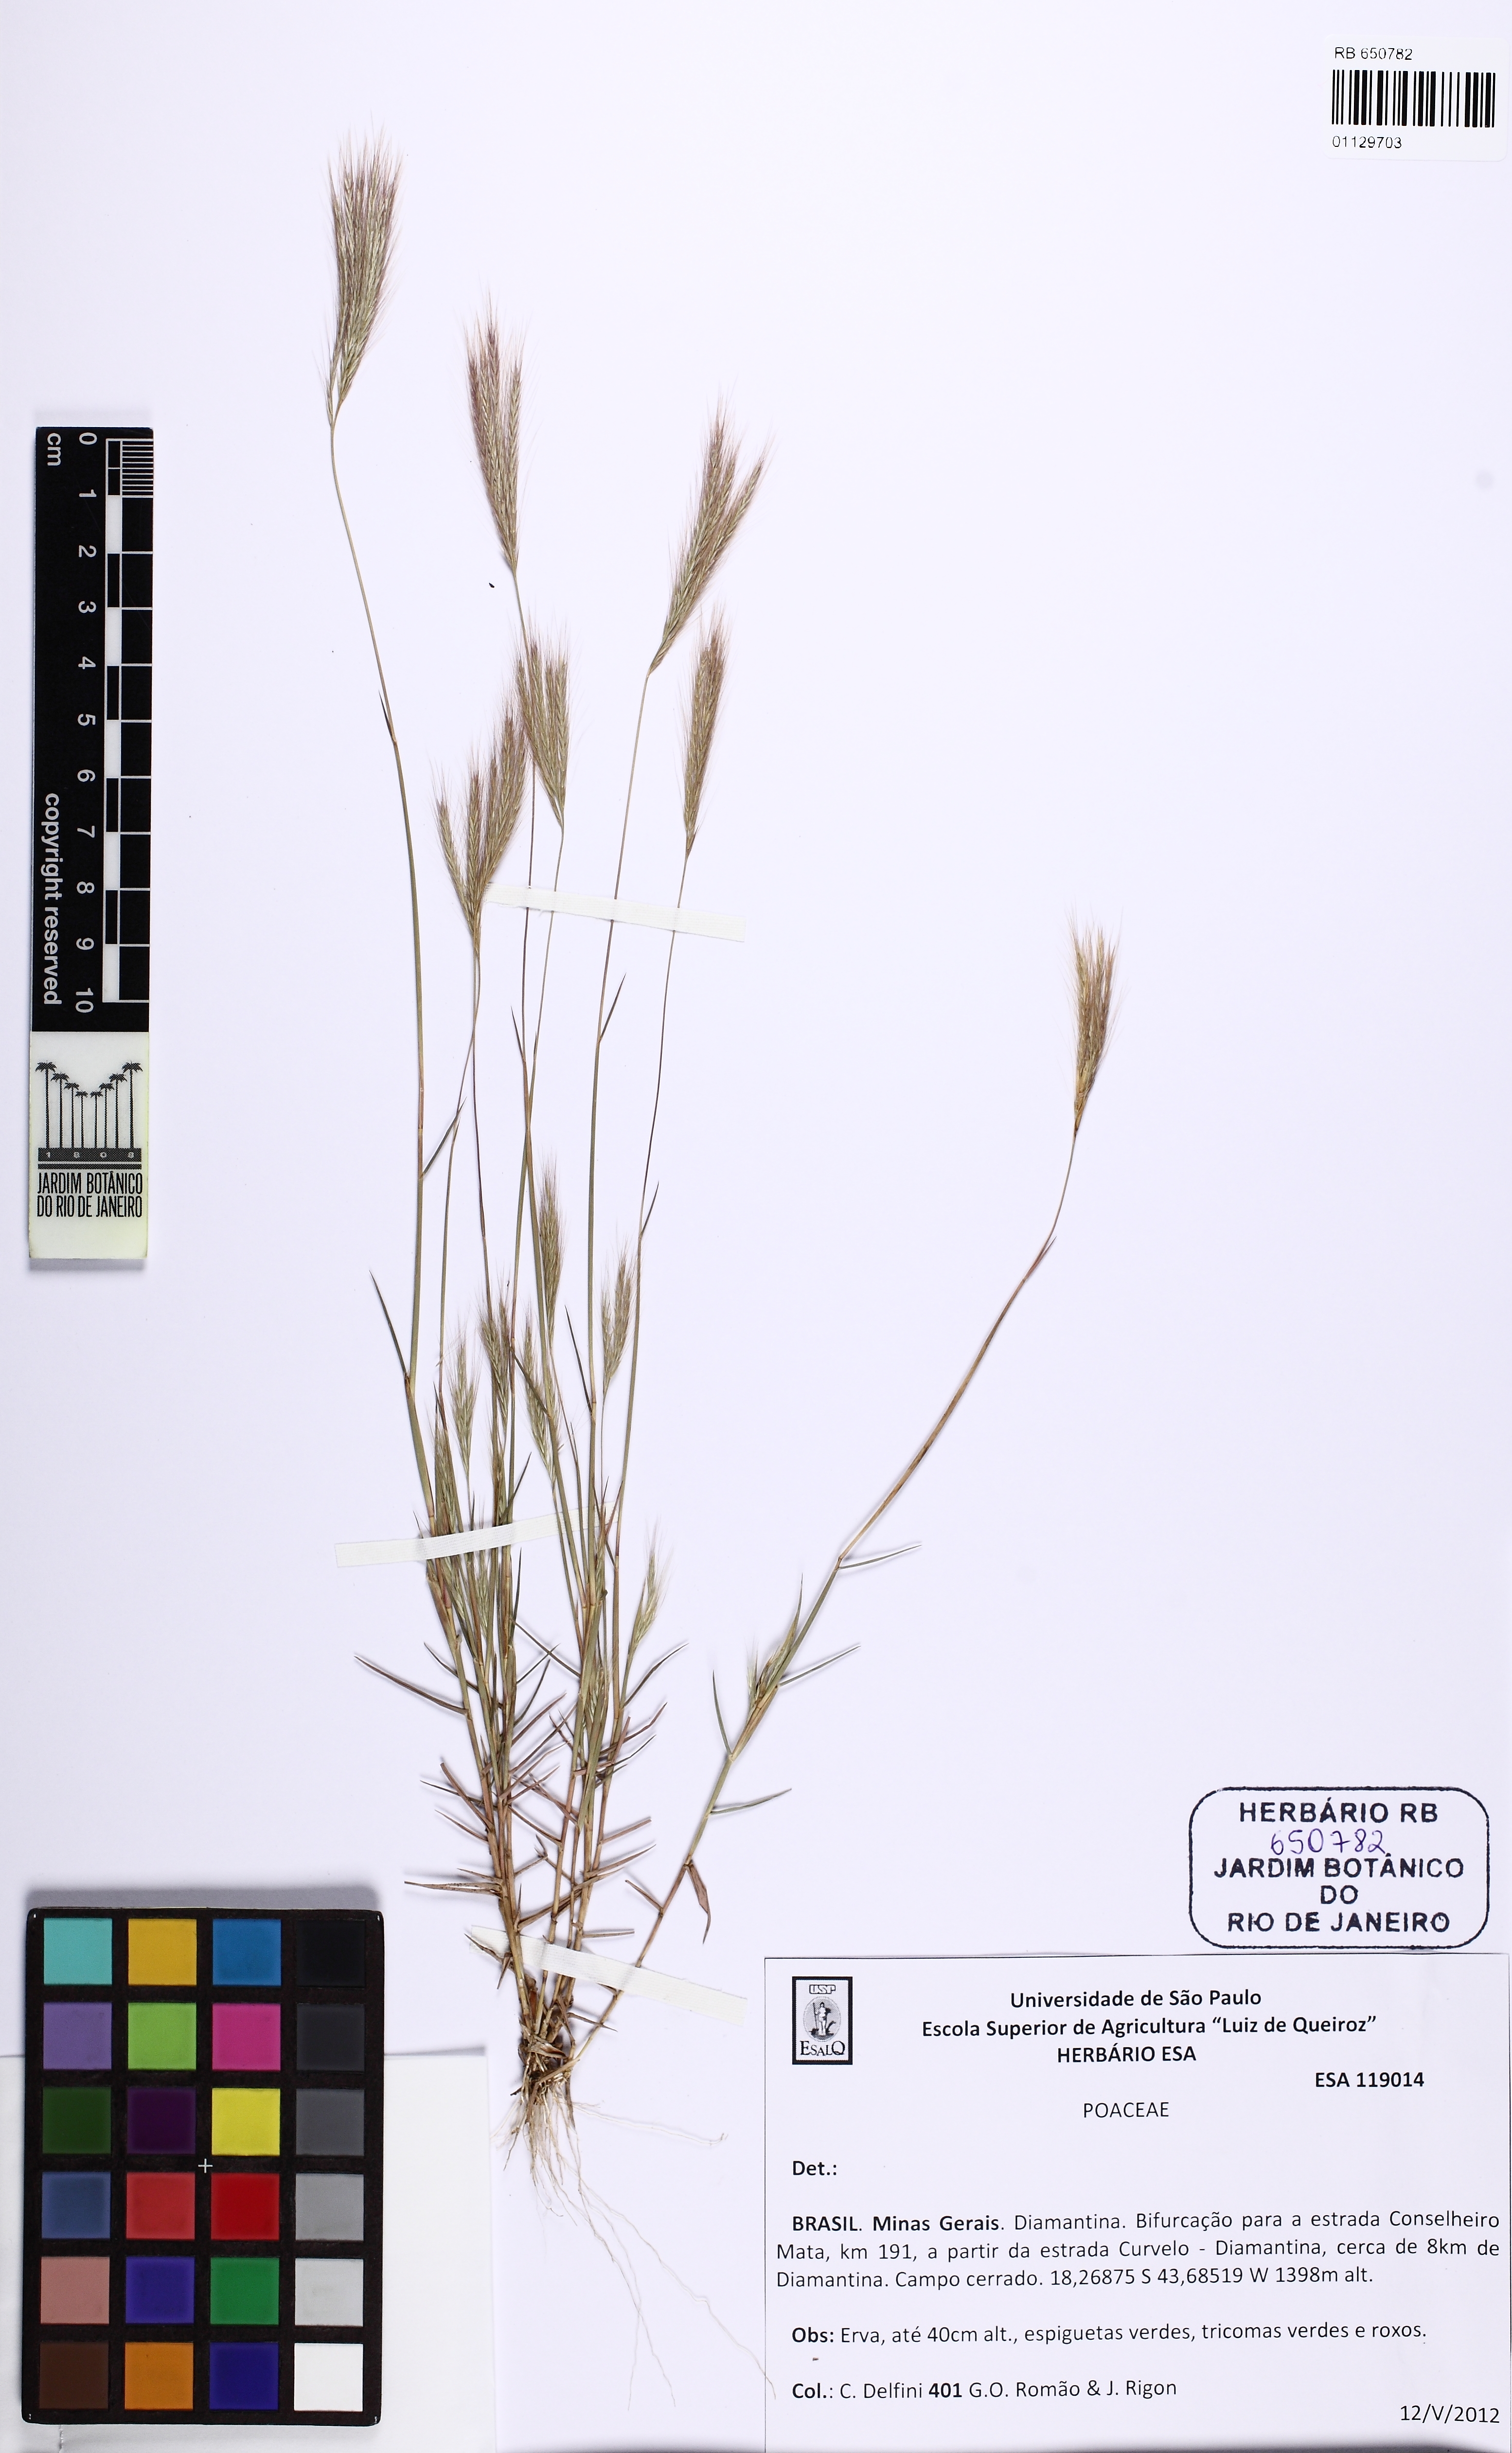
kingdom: Plantae
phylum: Tracheophyta
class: Liliopsida
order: Poales
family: Poaceae
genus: Gymnopogon
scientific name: Gymnopogon
